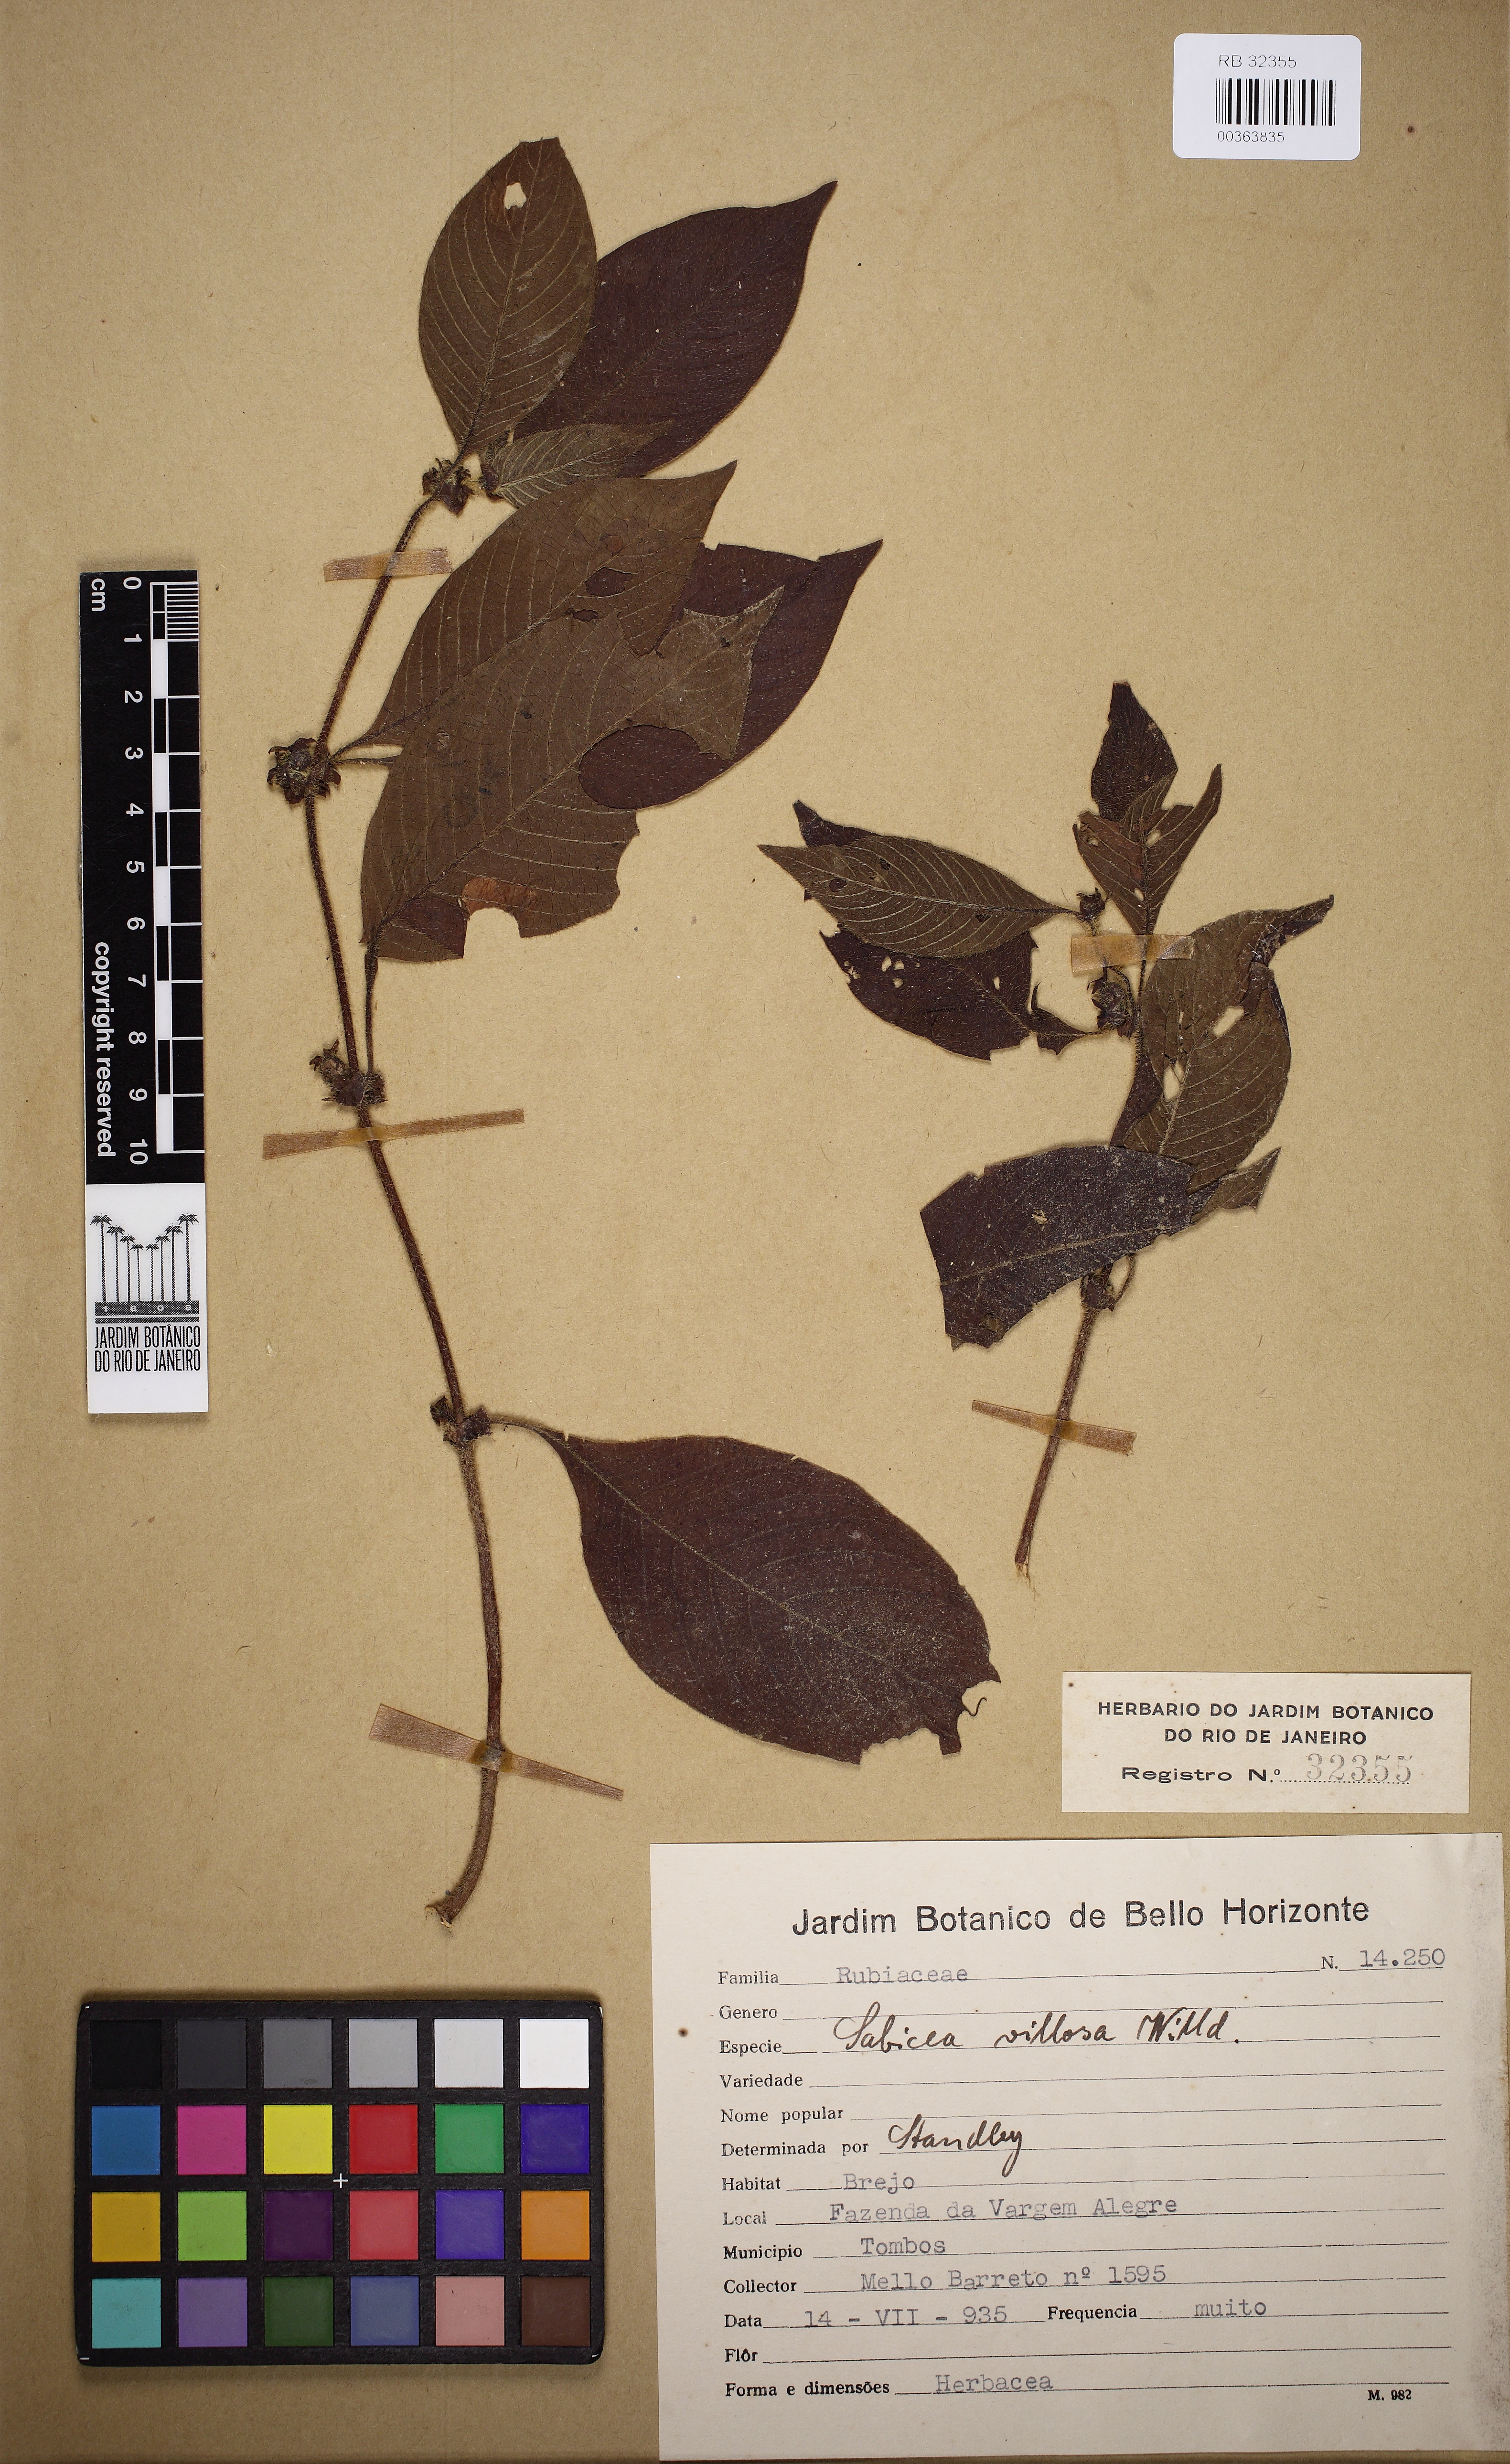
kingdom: Plantae
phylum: Tracheophyta
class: Magnoliopsida
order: Gentianales
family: Rubiaceae
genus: Sabicea
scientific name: Sabicea villosa
